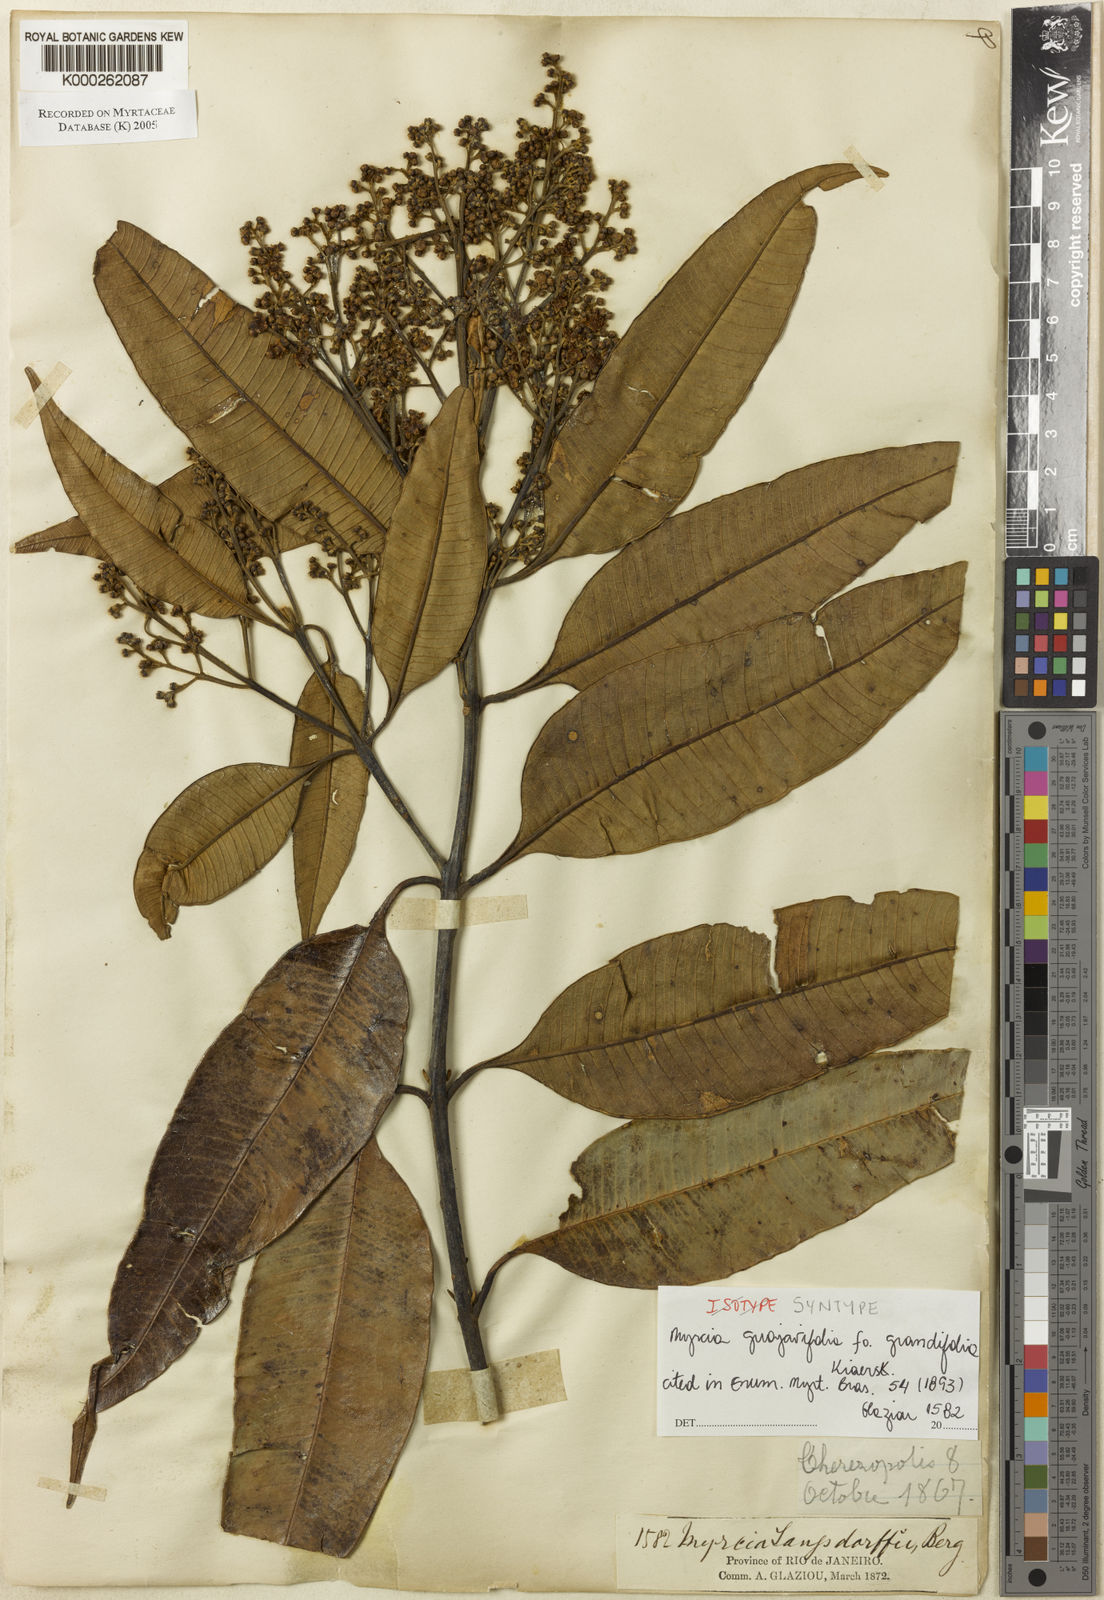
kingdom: Plantae
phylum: Tracheophyta
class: Magnoliopsida
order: Myrtales
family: Myrtaceae
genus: Myrcia
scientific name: Myrcia splendens
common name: Surinam cherry
